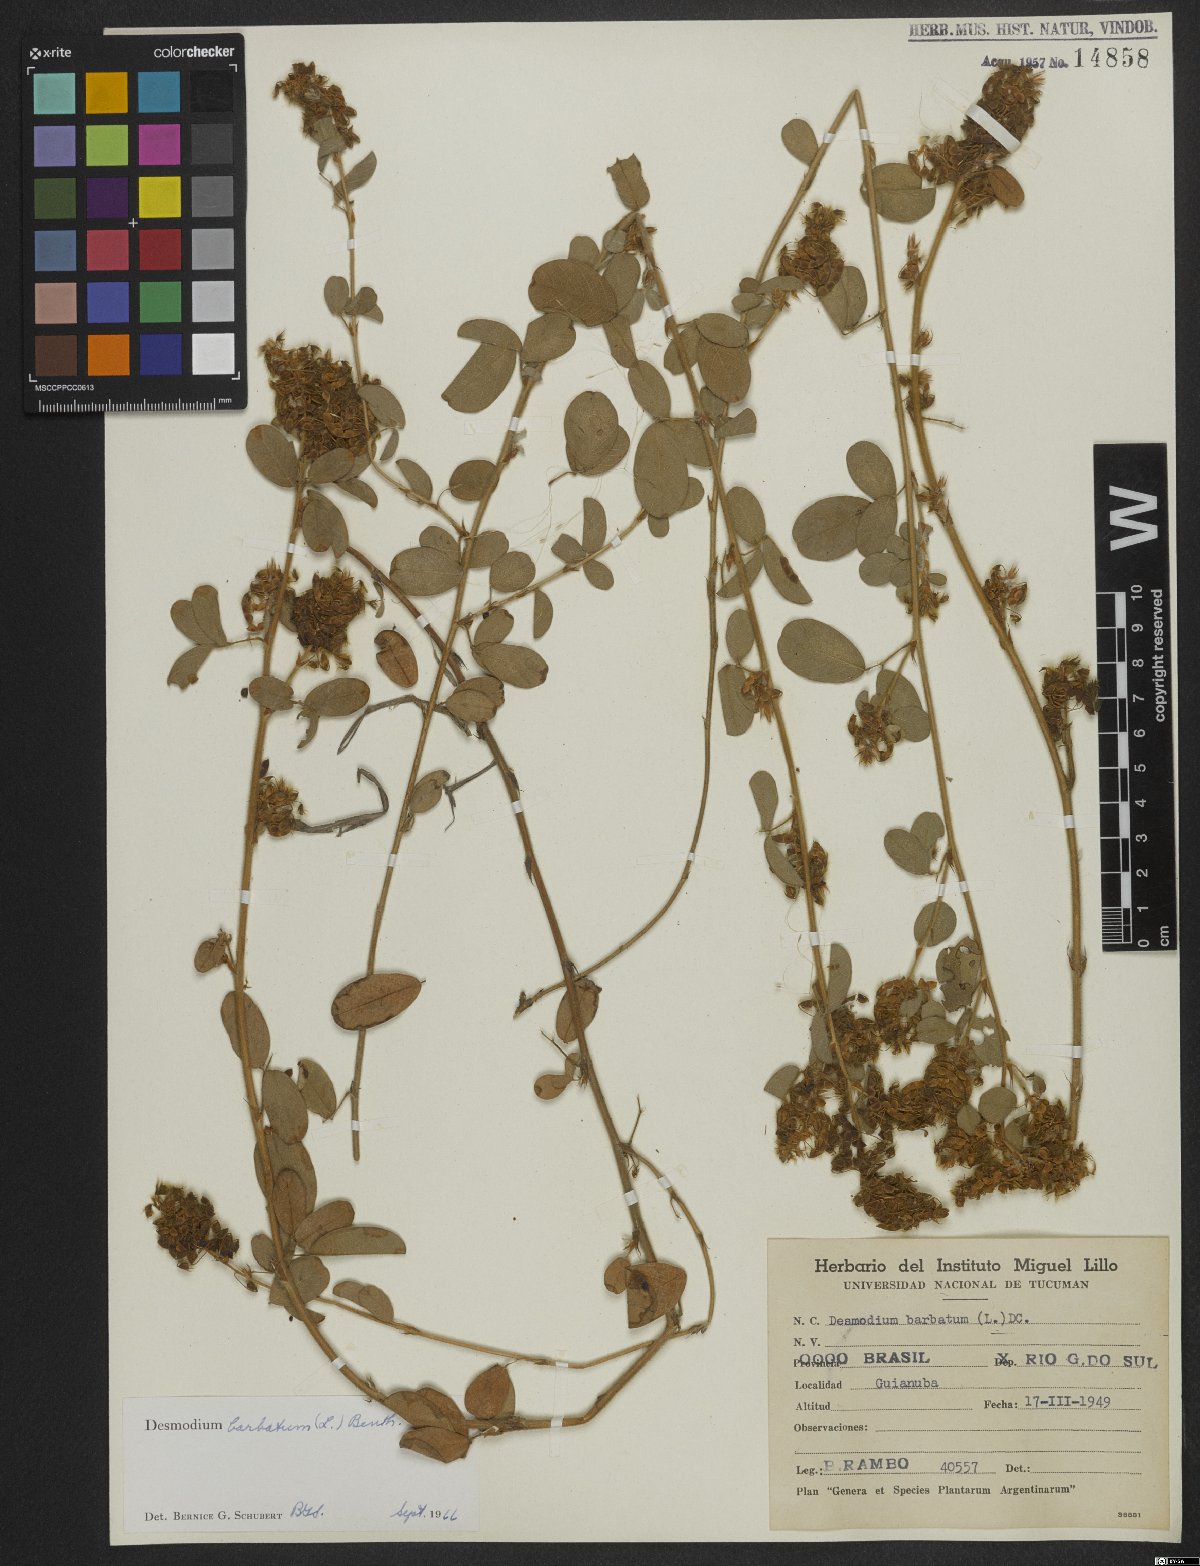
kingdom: Plantae
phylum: Tracheophyta
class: Magnoliopsida
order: Fabales
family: Fabaceae
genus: Grona
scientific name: Grona barbata
